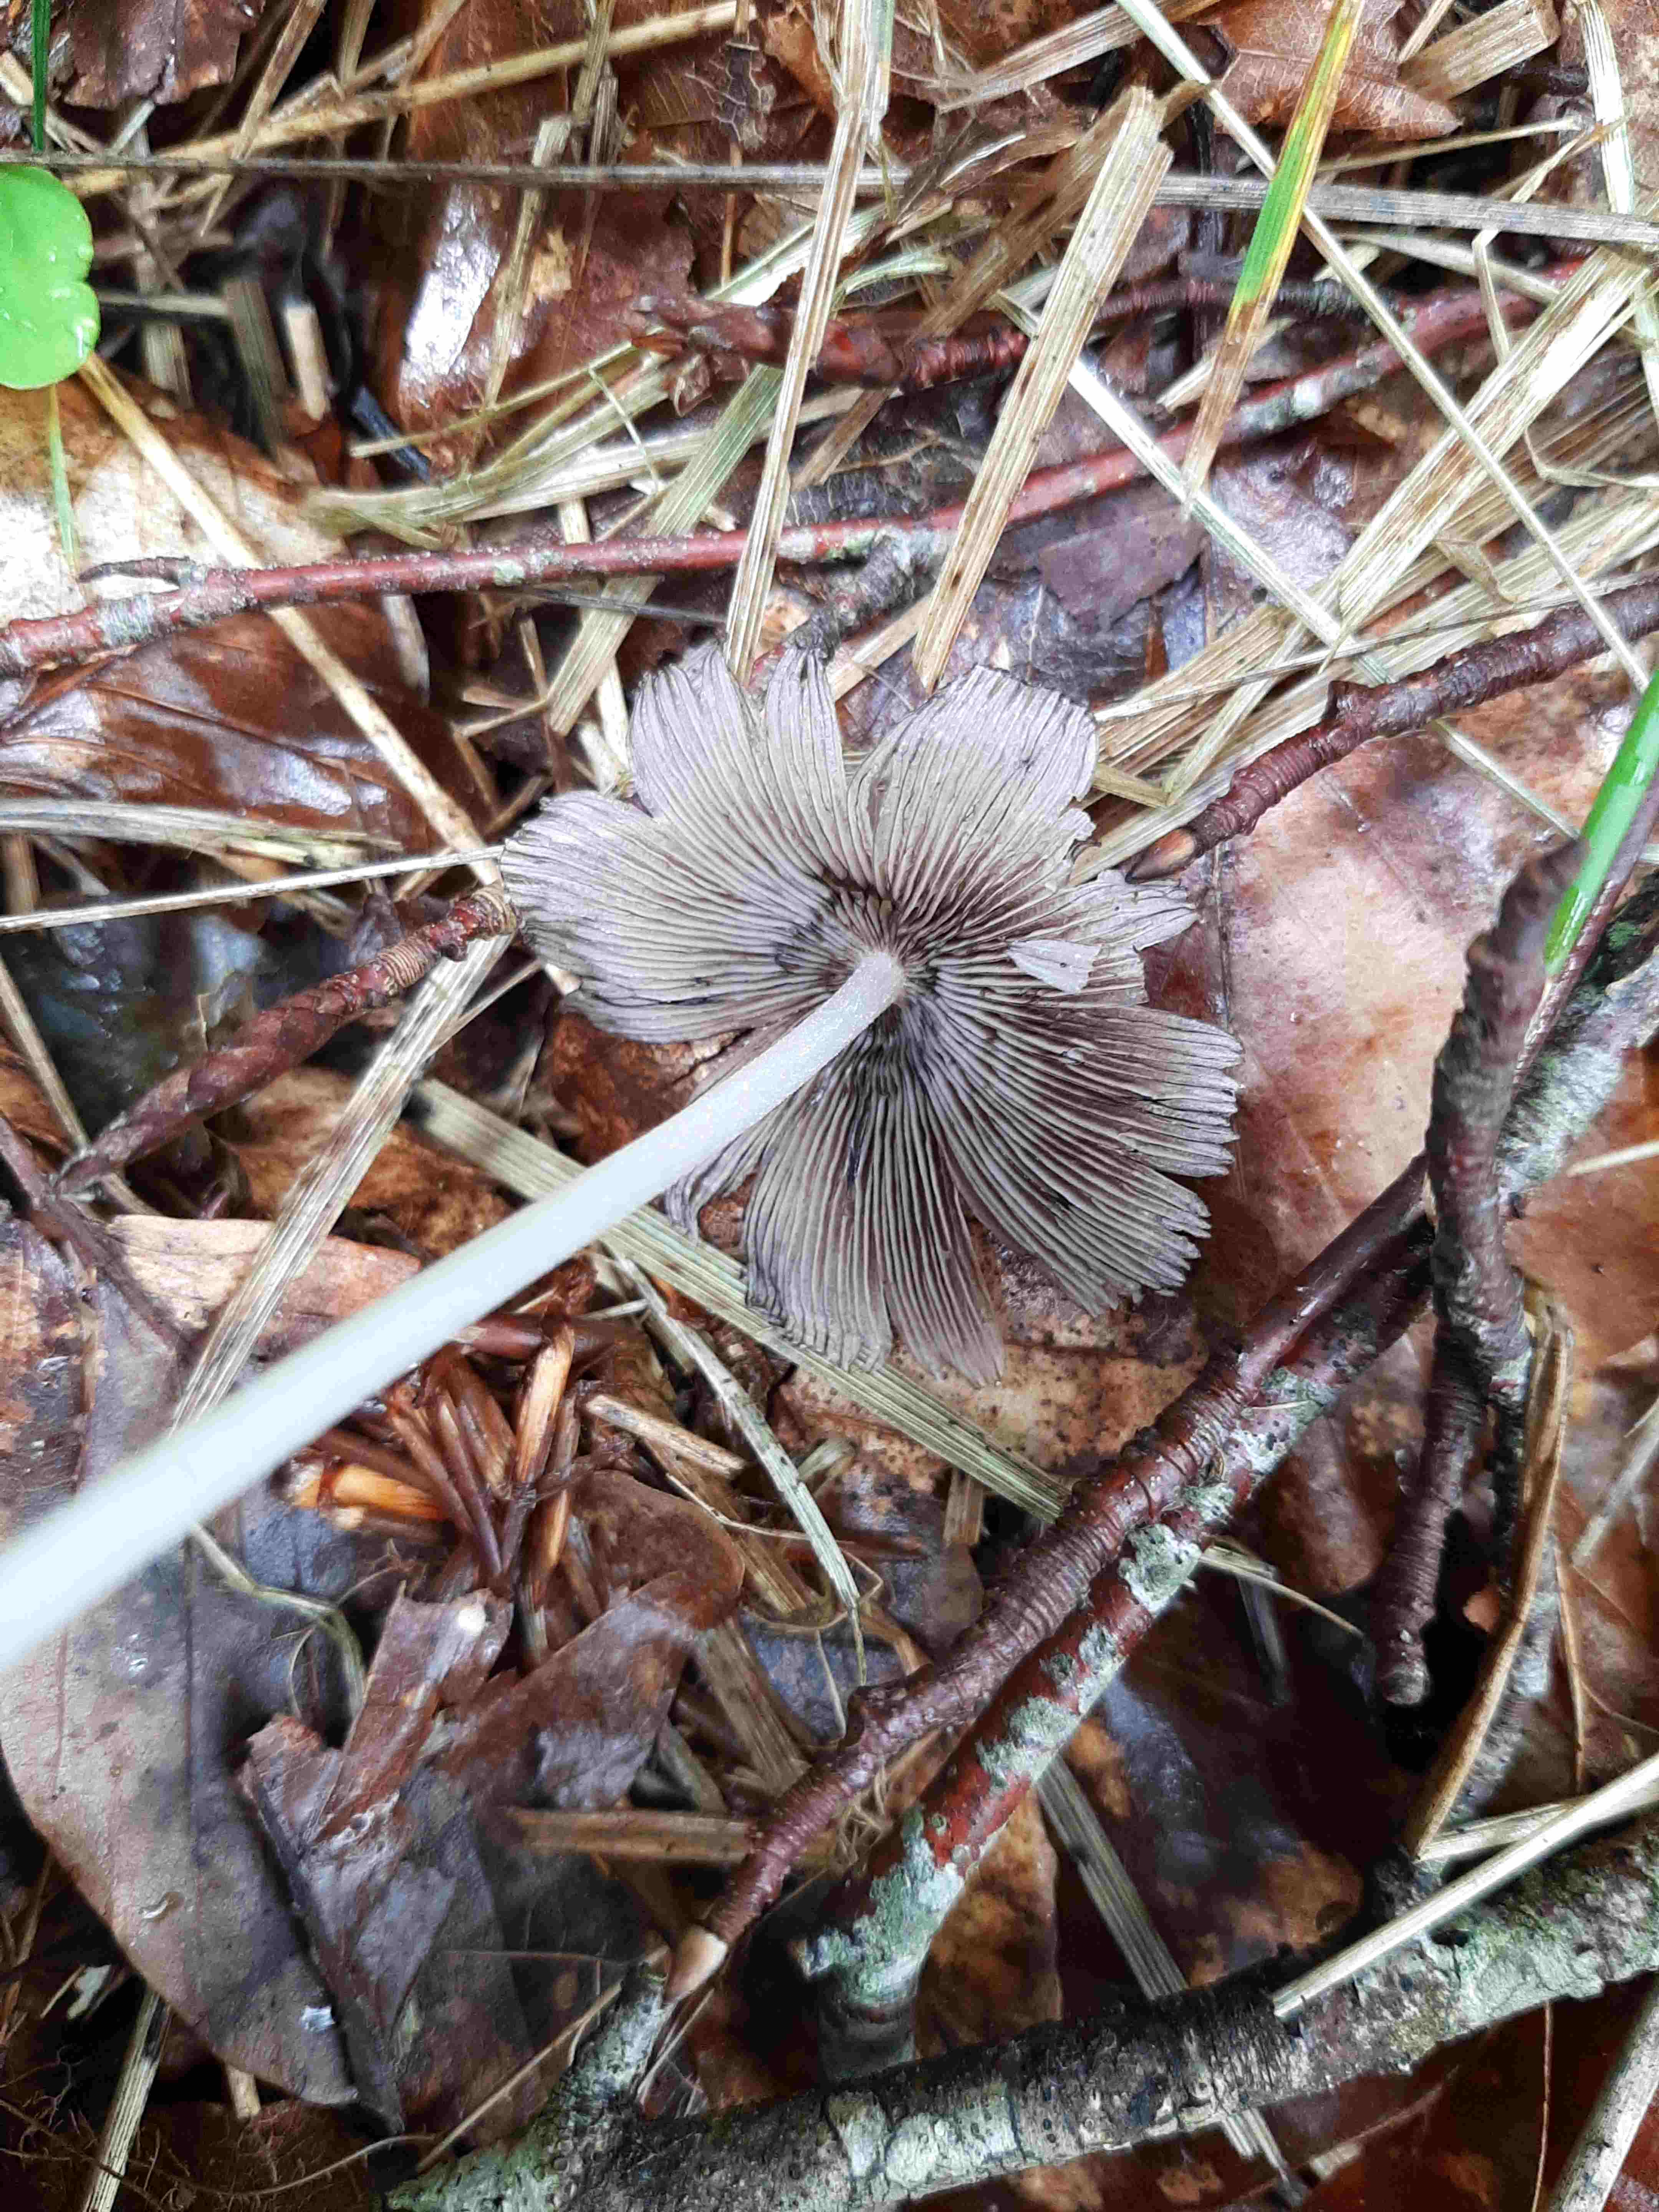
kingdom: Fungi
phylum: Basidiomycota
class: Agaricomycetes
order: Agaricales
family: Psathyrellaceae
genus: Coprinellus
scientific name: Coprinellus
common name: blækhat
